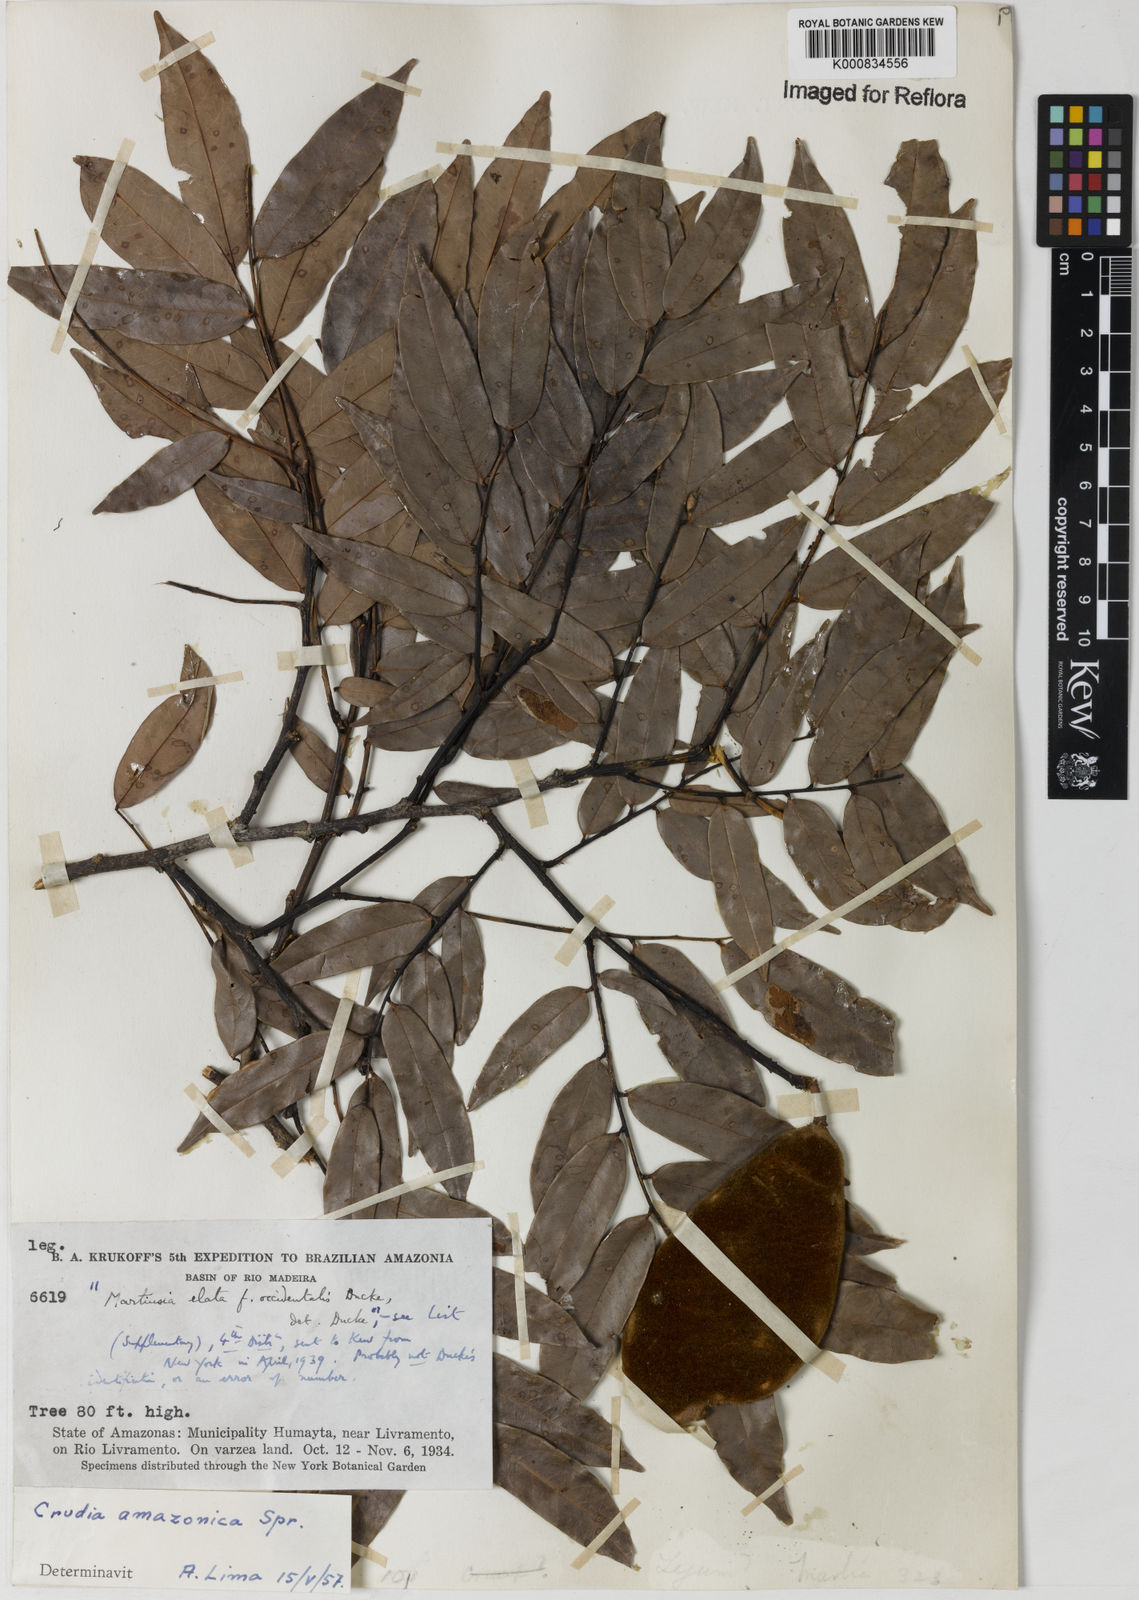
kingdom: Plantae
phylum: Tracheophyta
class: Magnoliopsida
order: Fabales
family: Fabaceae
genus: Crudia
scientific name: Crudia
